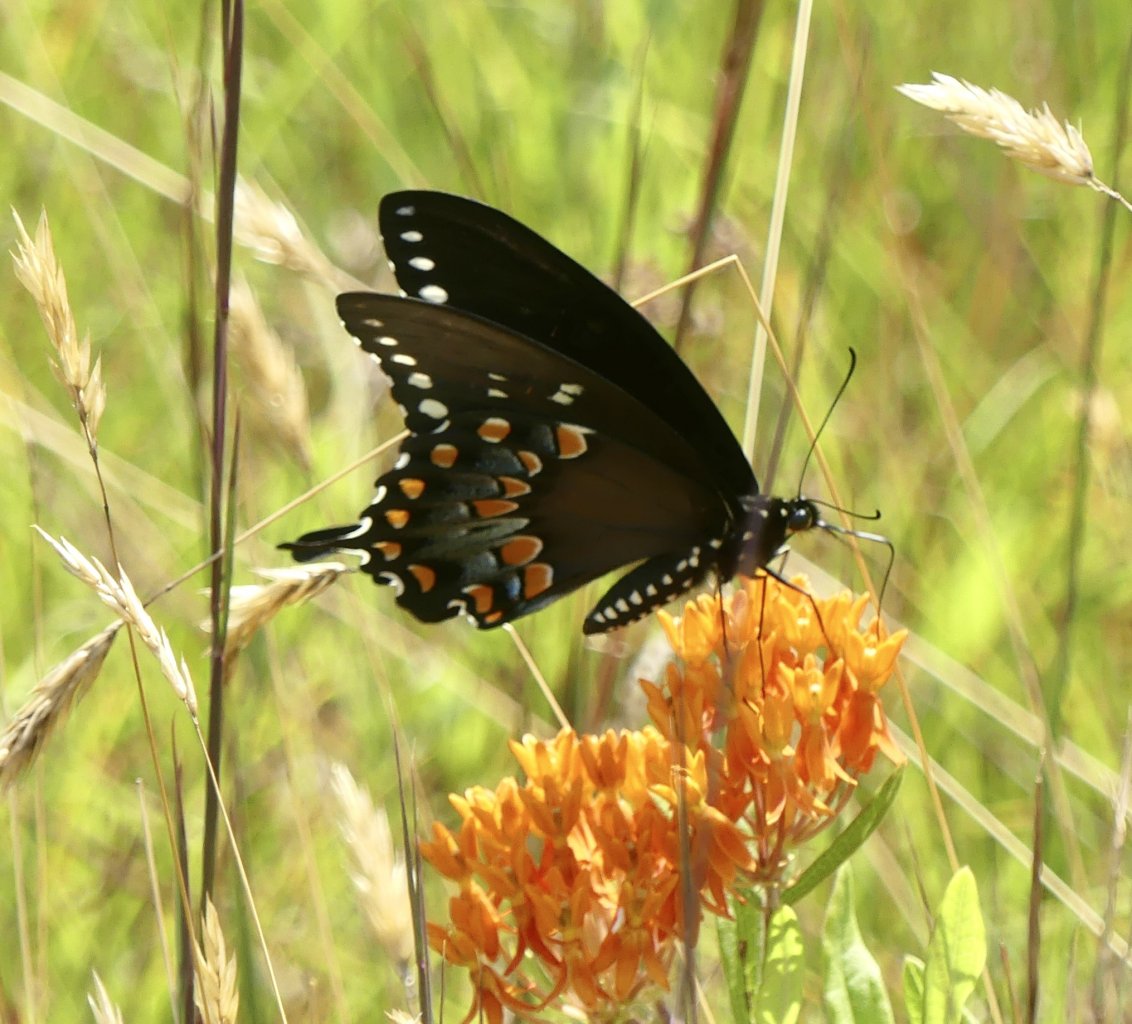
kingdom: Animalia
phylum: Arthropoda
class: Insecta
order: Lepidoptera
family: Papilionidae
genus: Pterourus
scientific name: Pterourus troilus
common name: Spicebush Swallowtail
